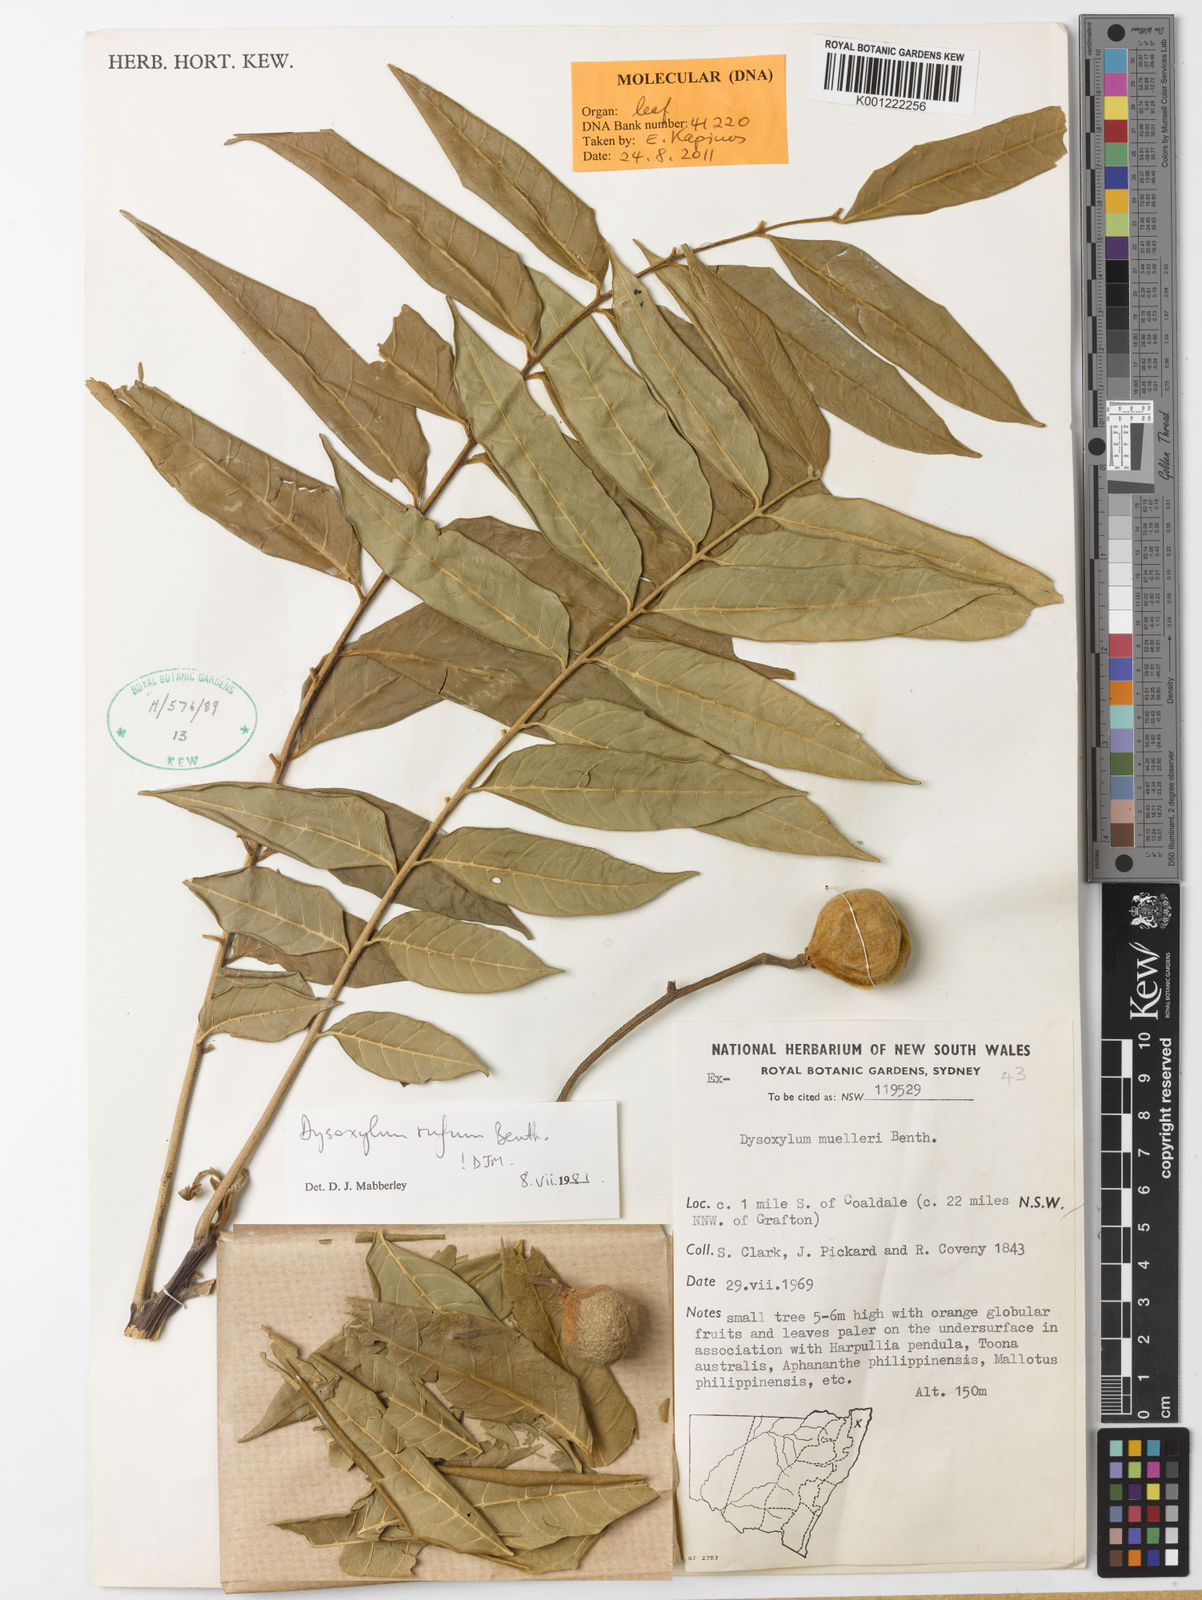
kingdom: Plantae
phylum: Tracheophyta
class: Magnoliopsida
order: Sapindales
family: Meliaceae
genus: Didymocheton
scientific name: Didymocheton rufus
